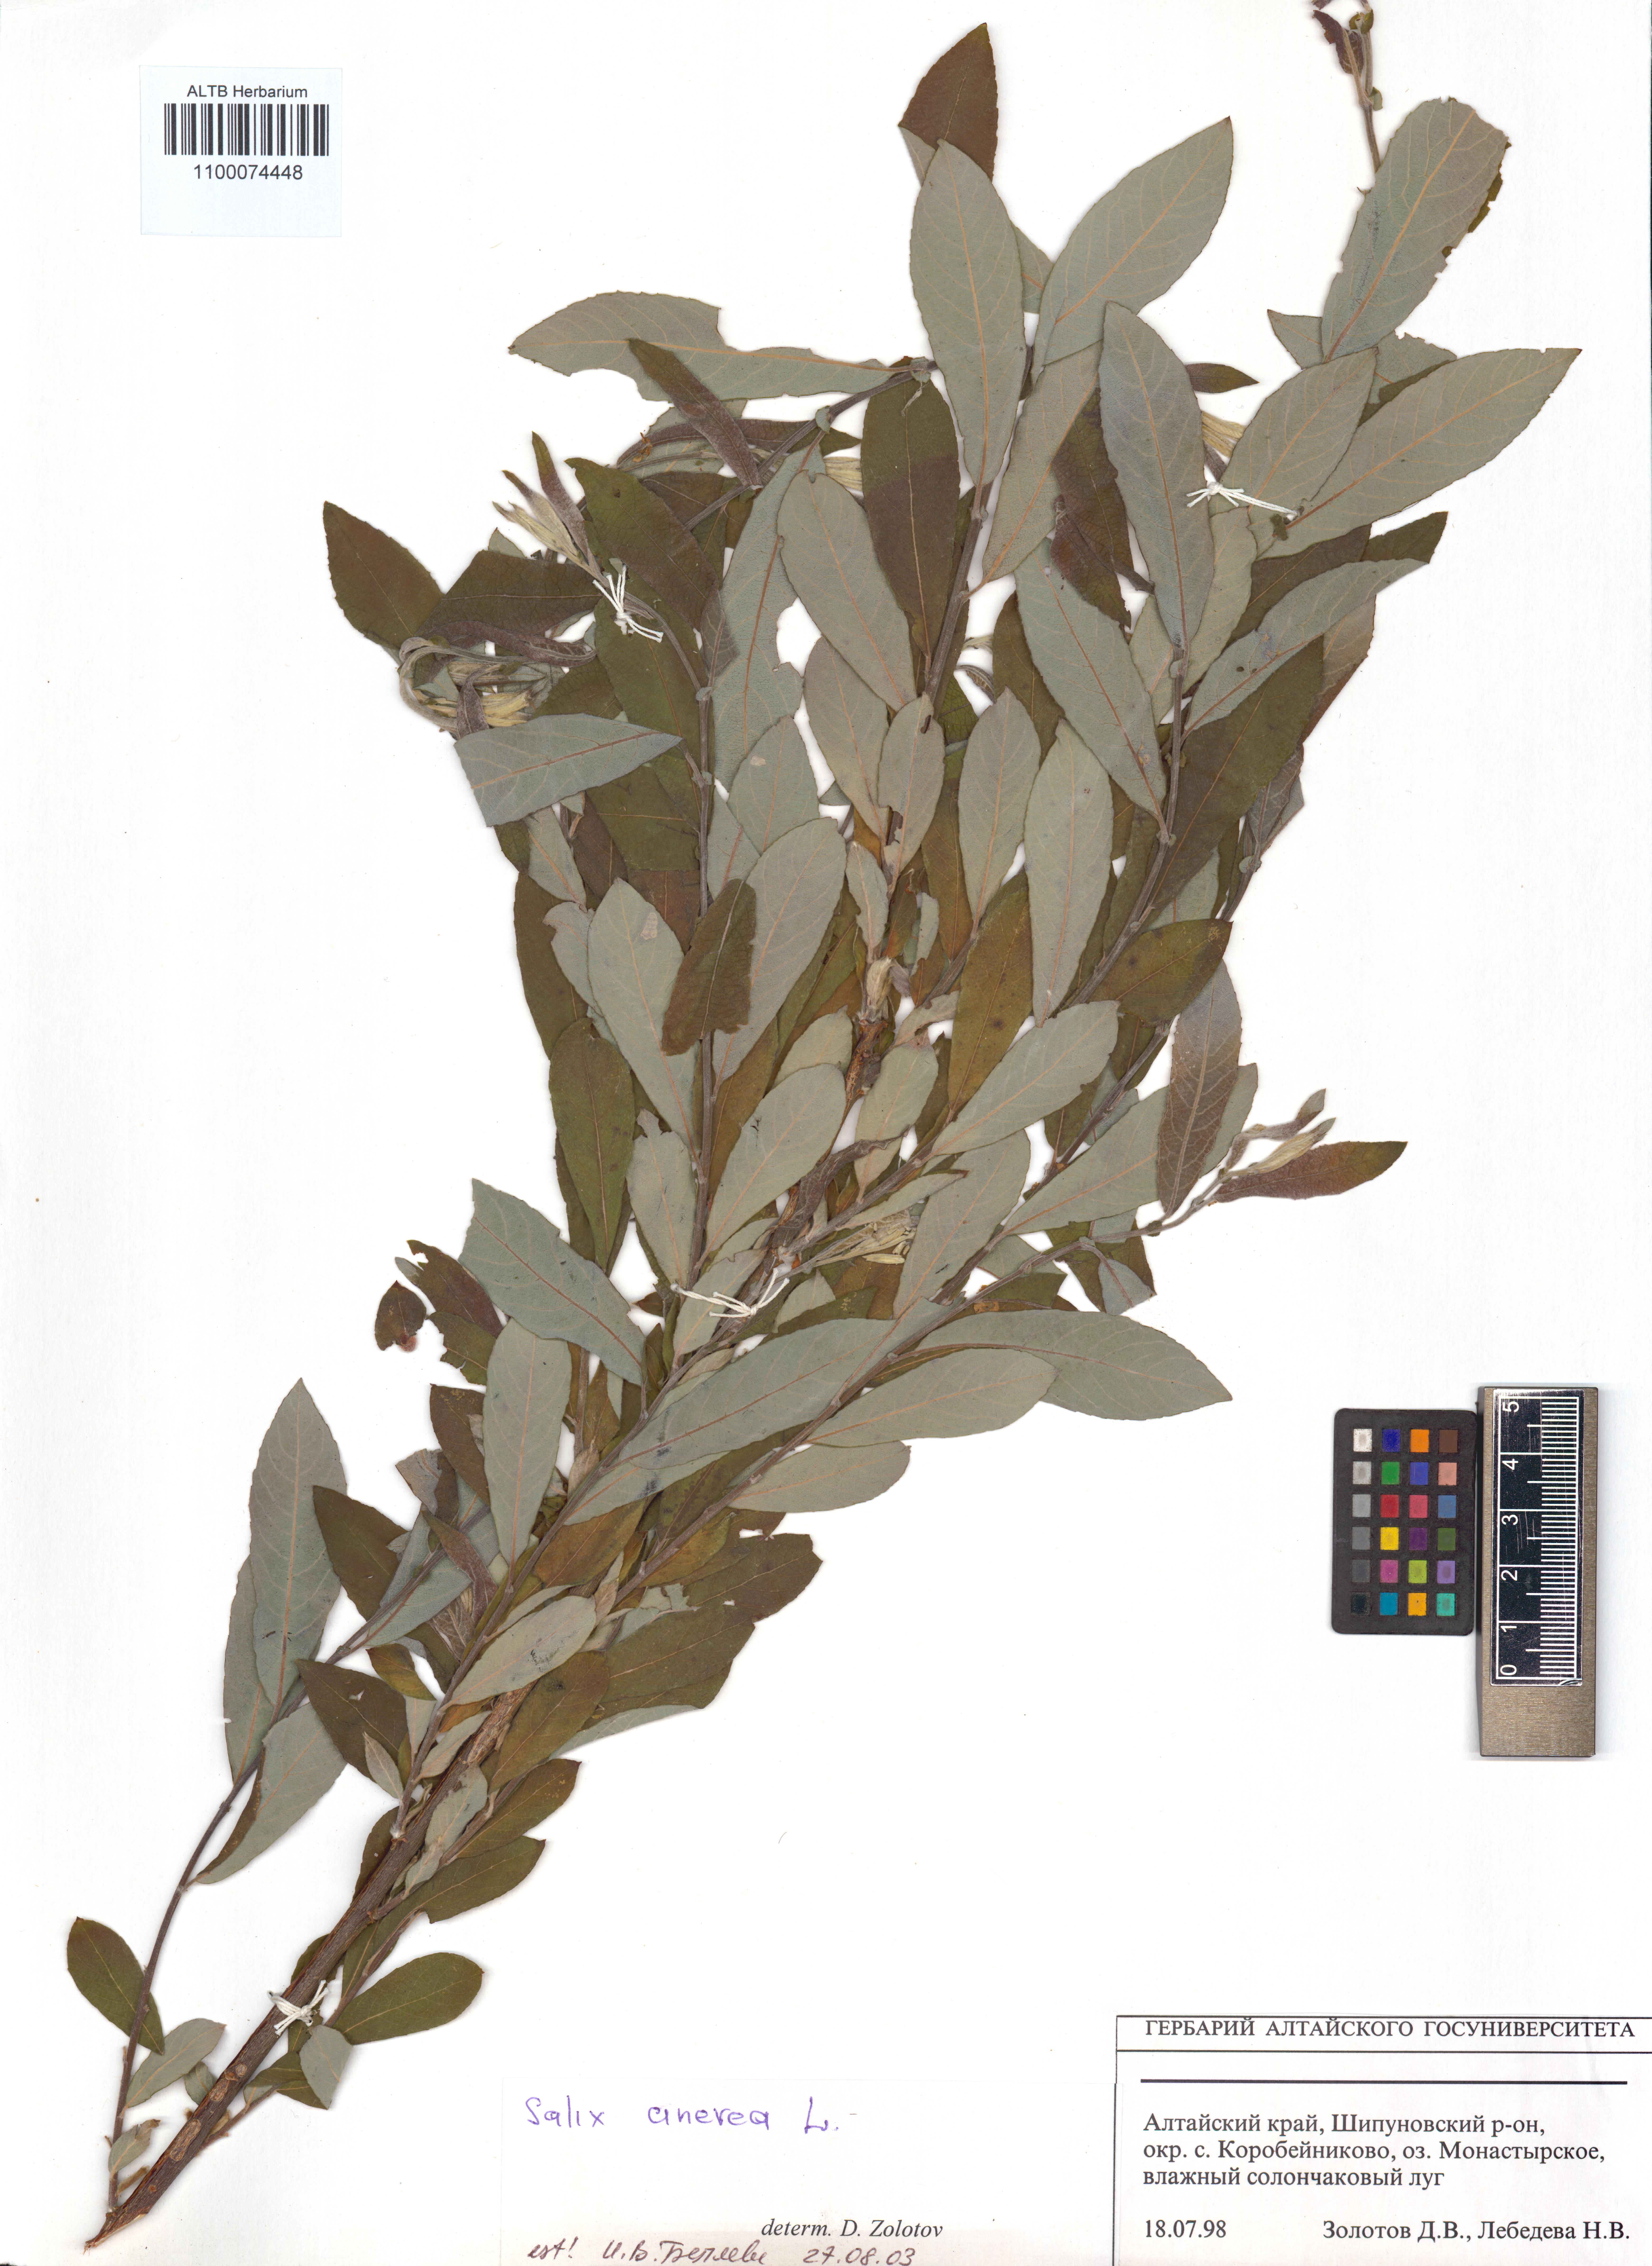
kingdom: Plantae
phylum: Tracheophyta
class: Magnoliopsida
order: Malpighiales
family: Salicaceae
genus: Salix
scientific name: Salix cinerea
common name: Common sallow
